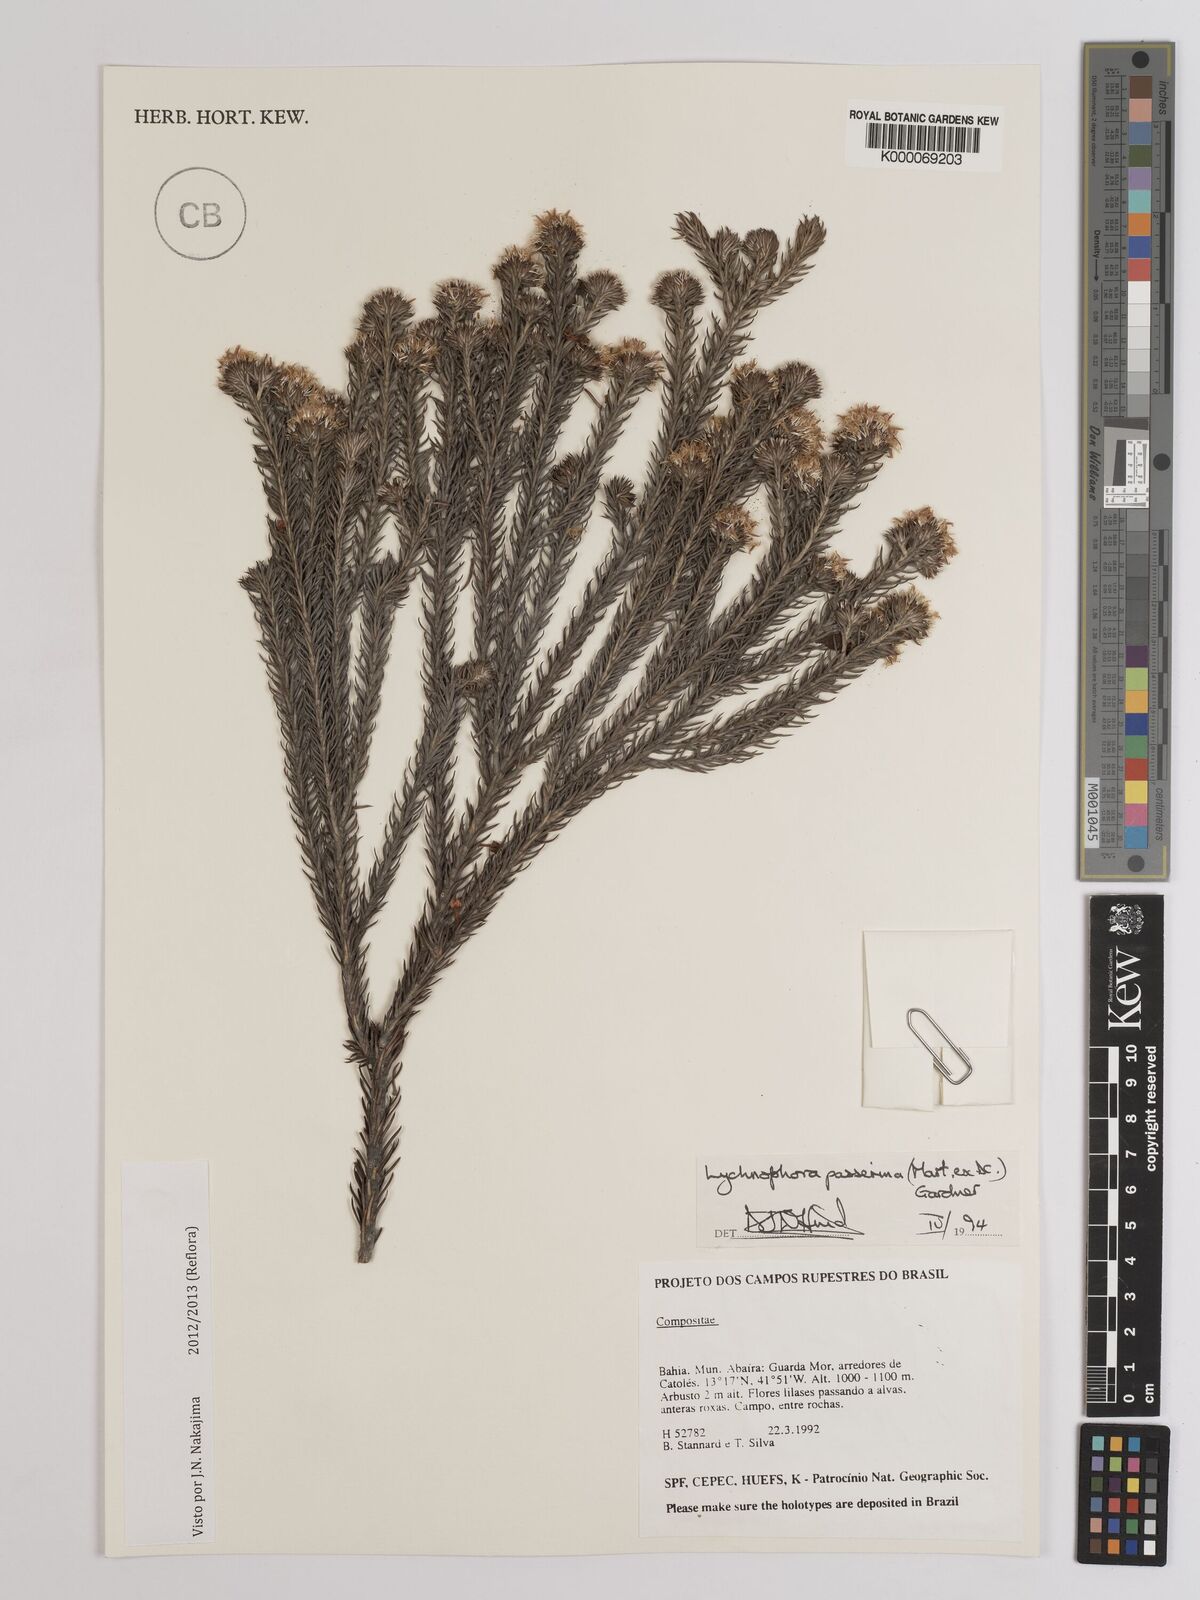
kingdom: Plantae
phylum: Tracheophyta
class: Magnoliopsida
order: Asterales
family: Asteraceae
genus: Lychnophora
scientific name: Lychnophora passerina
